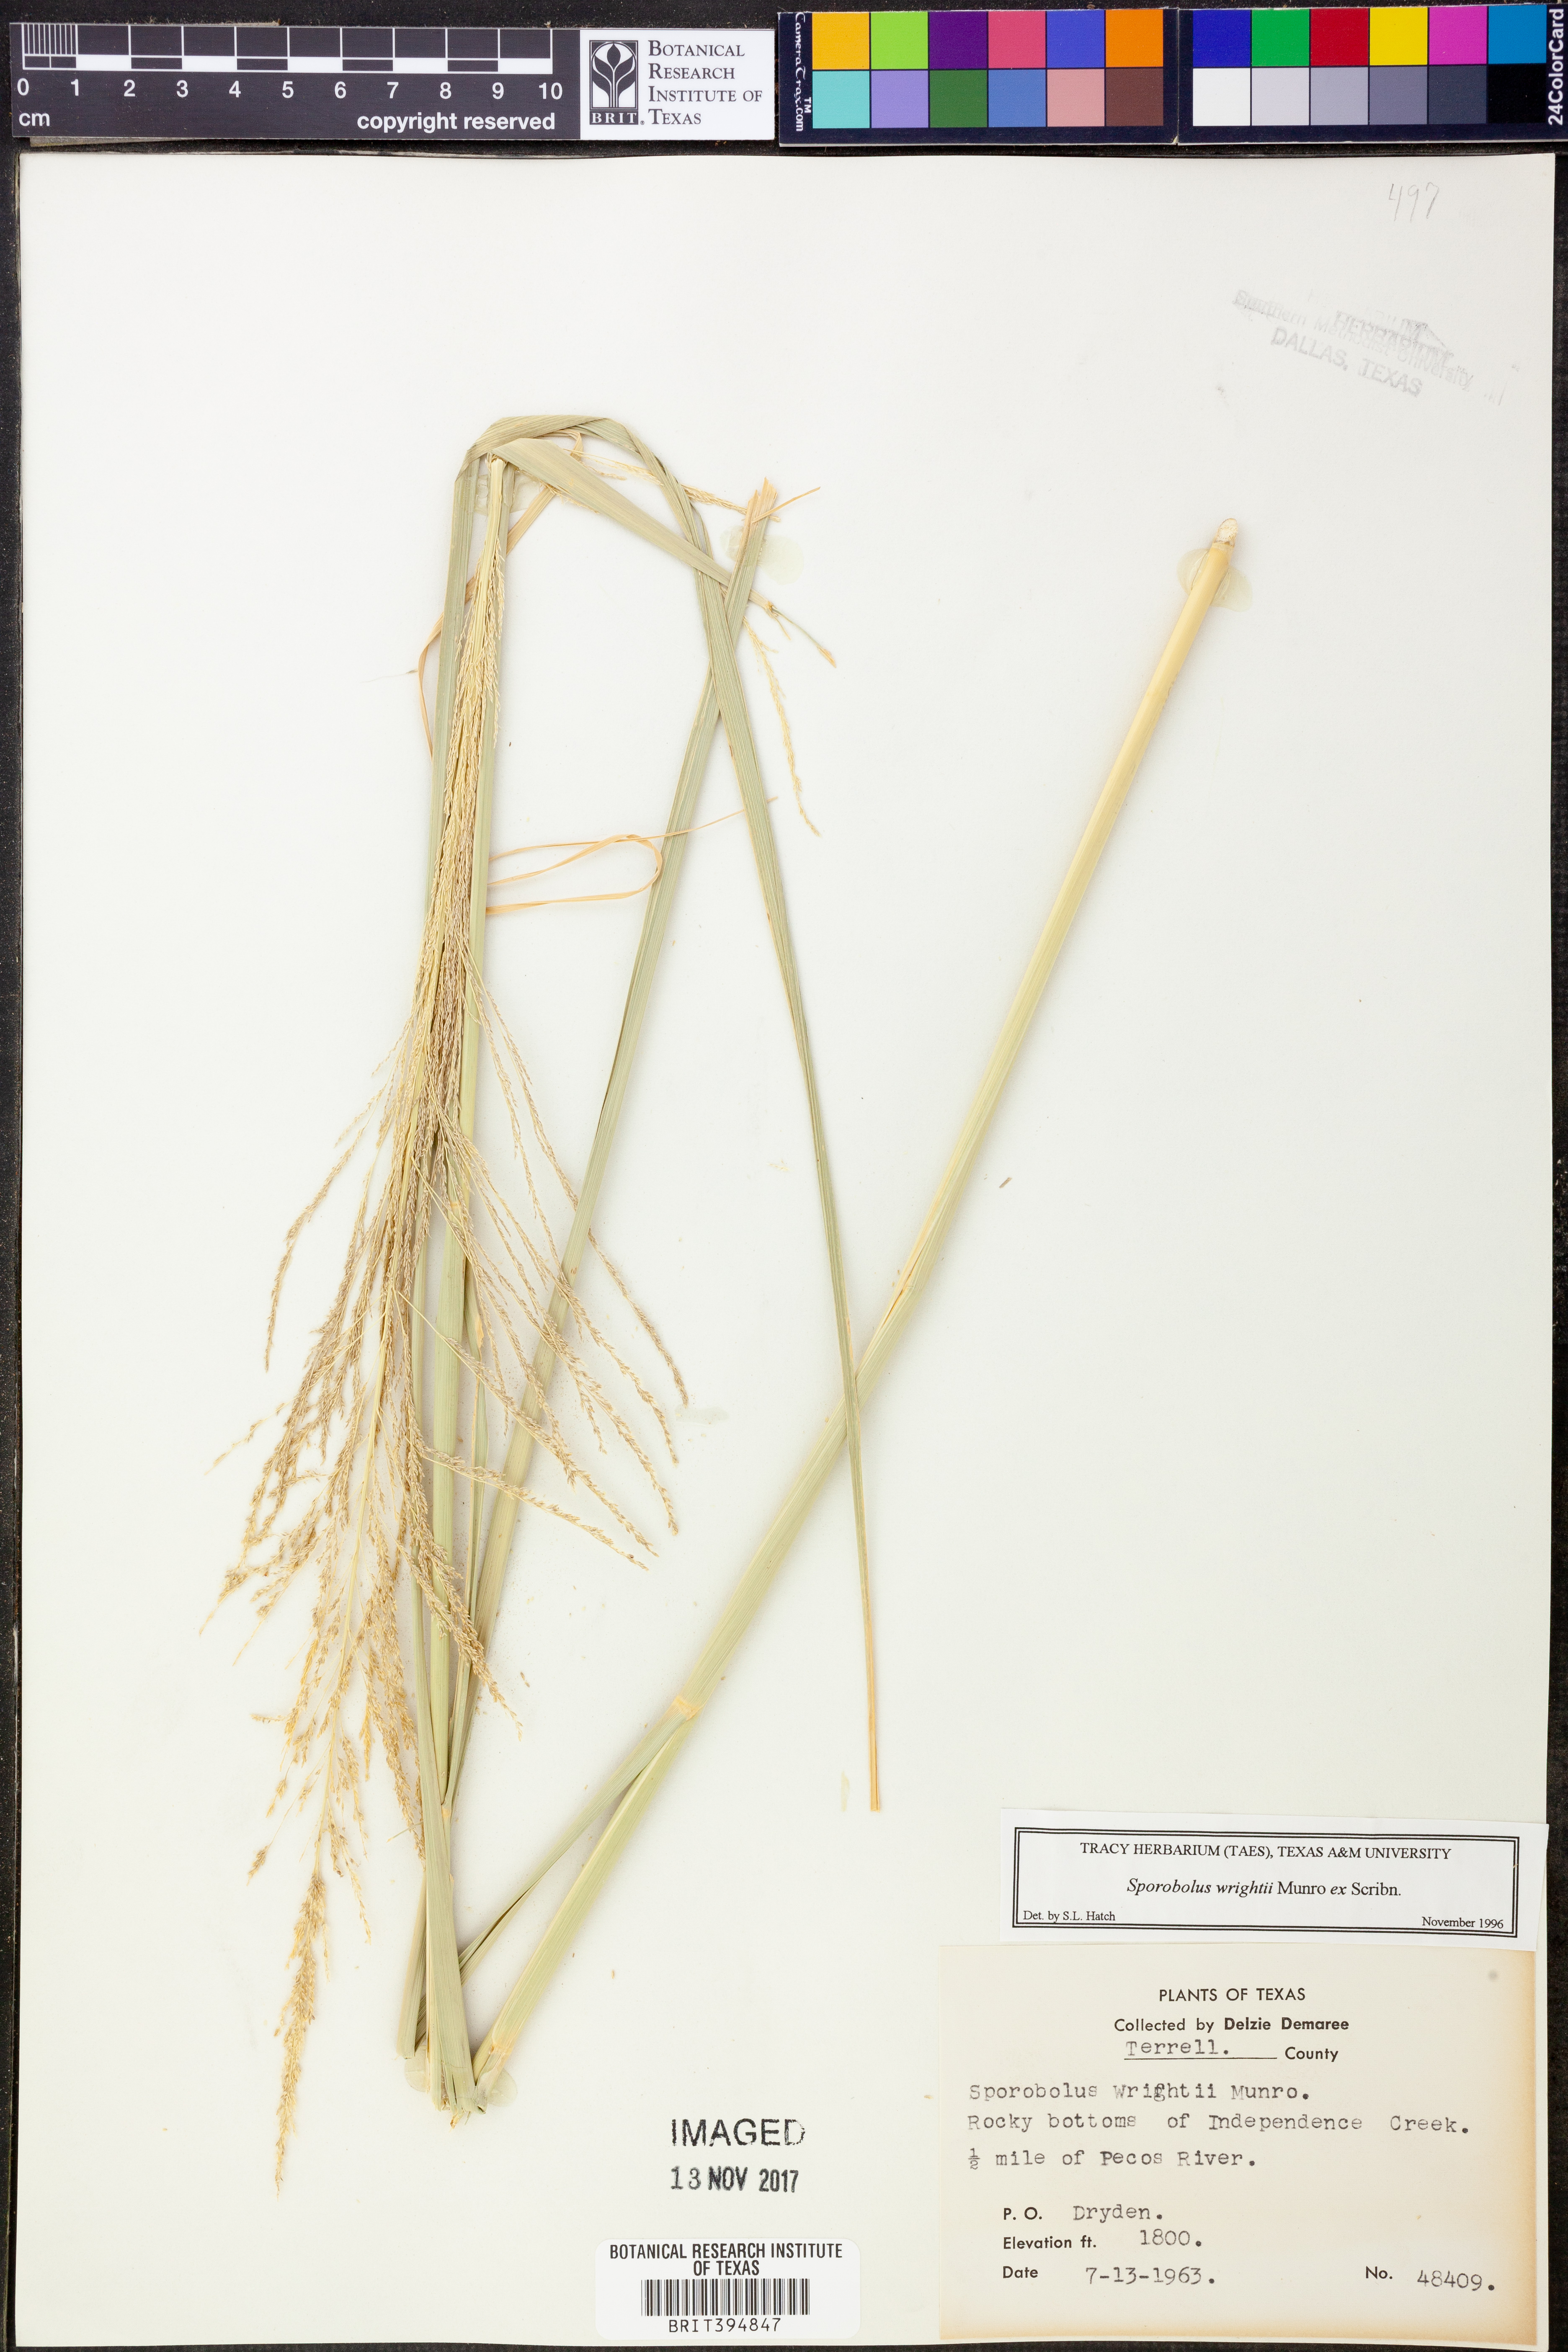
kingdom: Plantae
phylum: Tracheophyta
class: Liliopsida
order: Poales
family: Poaceae
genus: Sporobolus
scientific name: Sporobolus wrightii
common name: Big alkali sacaton
